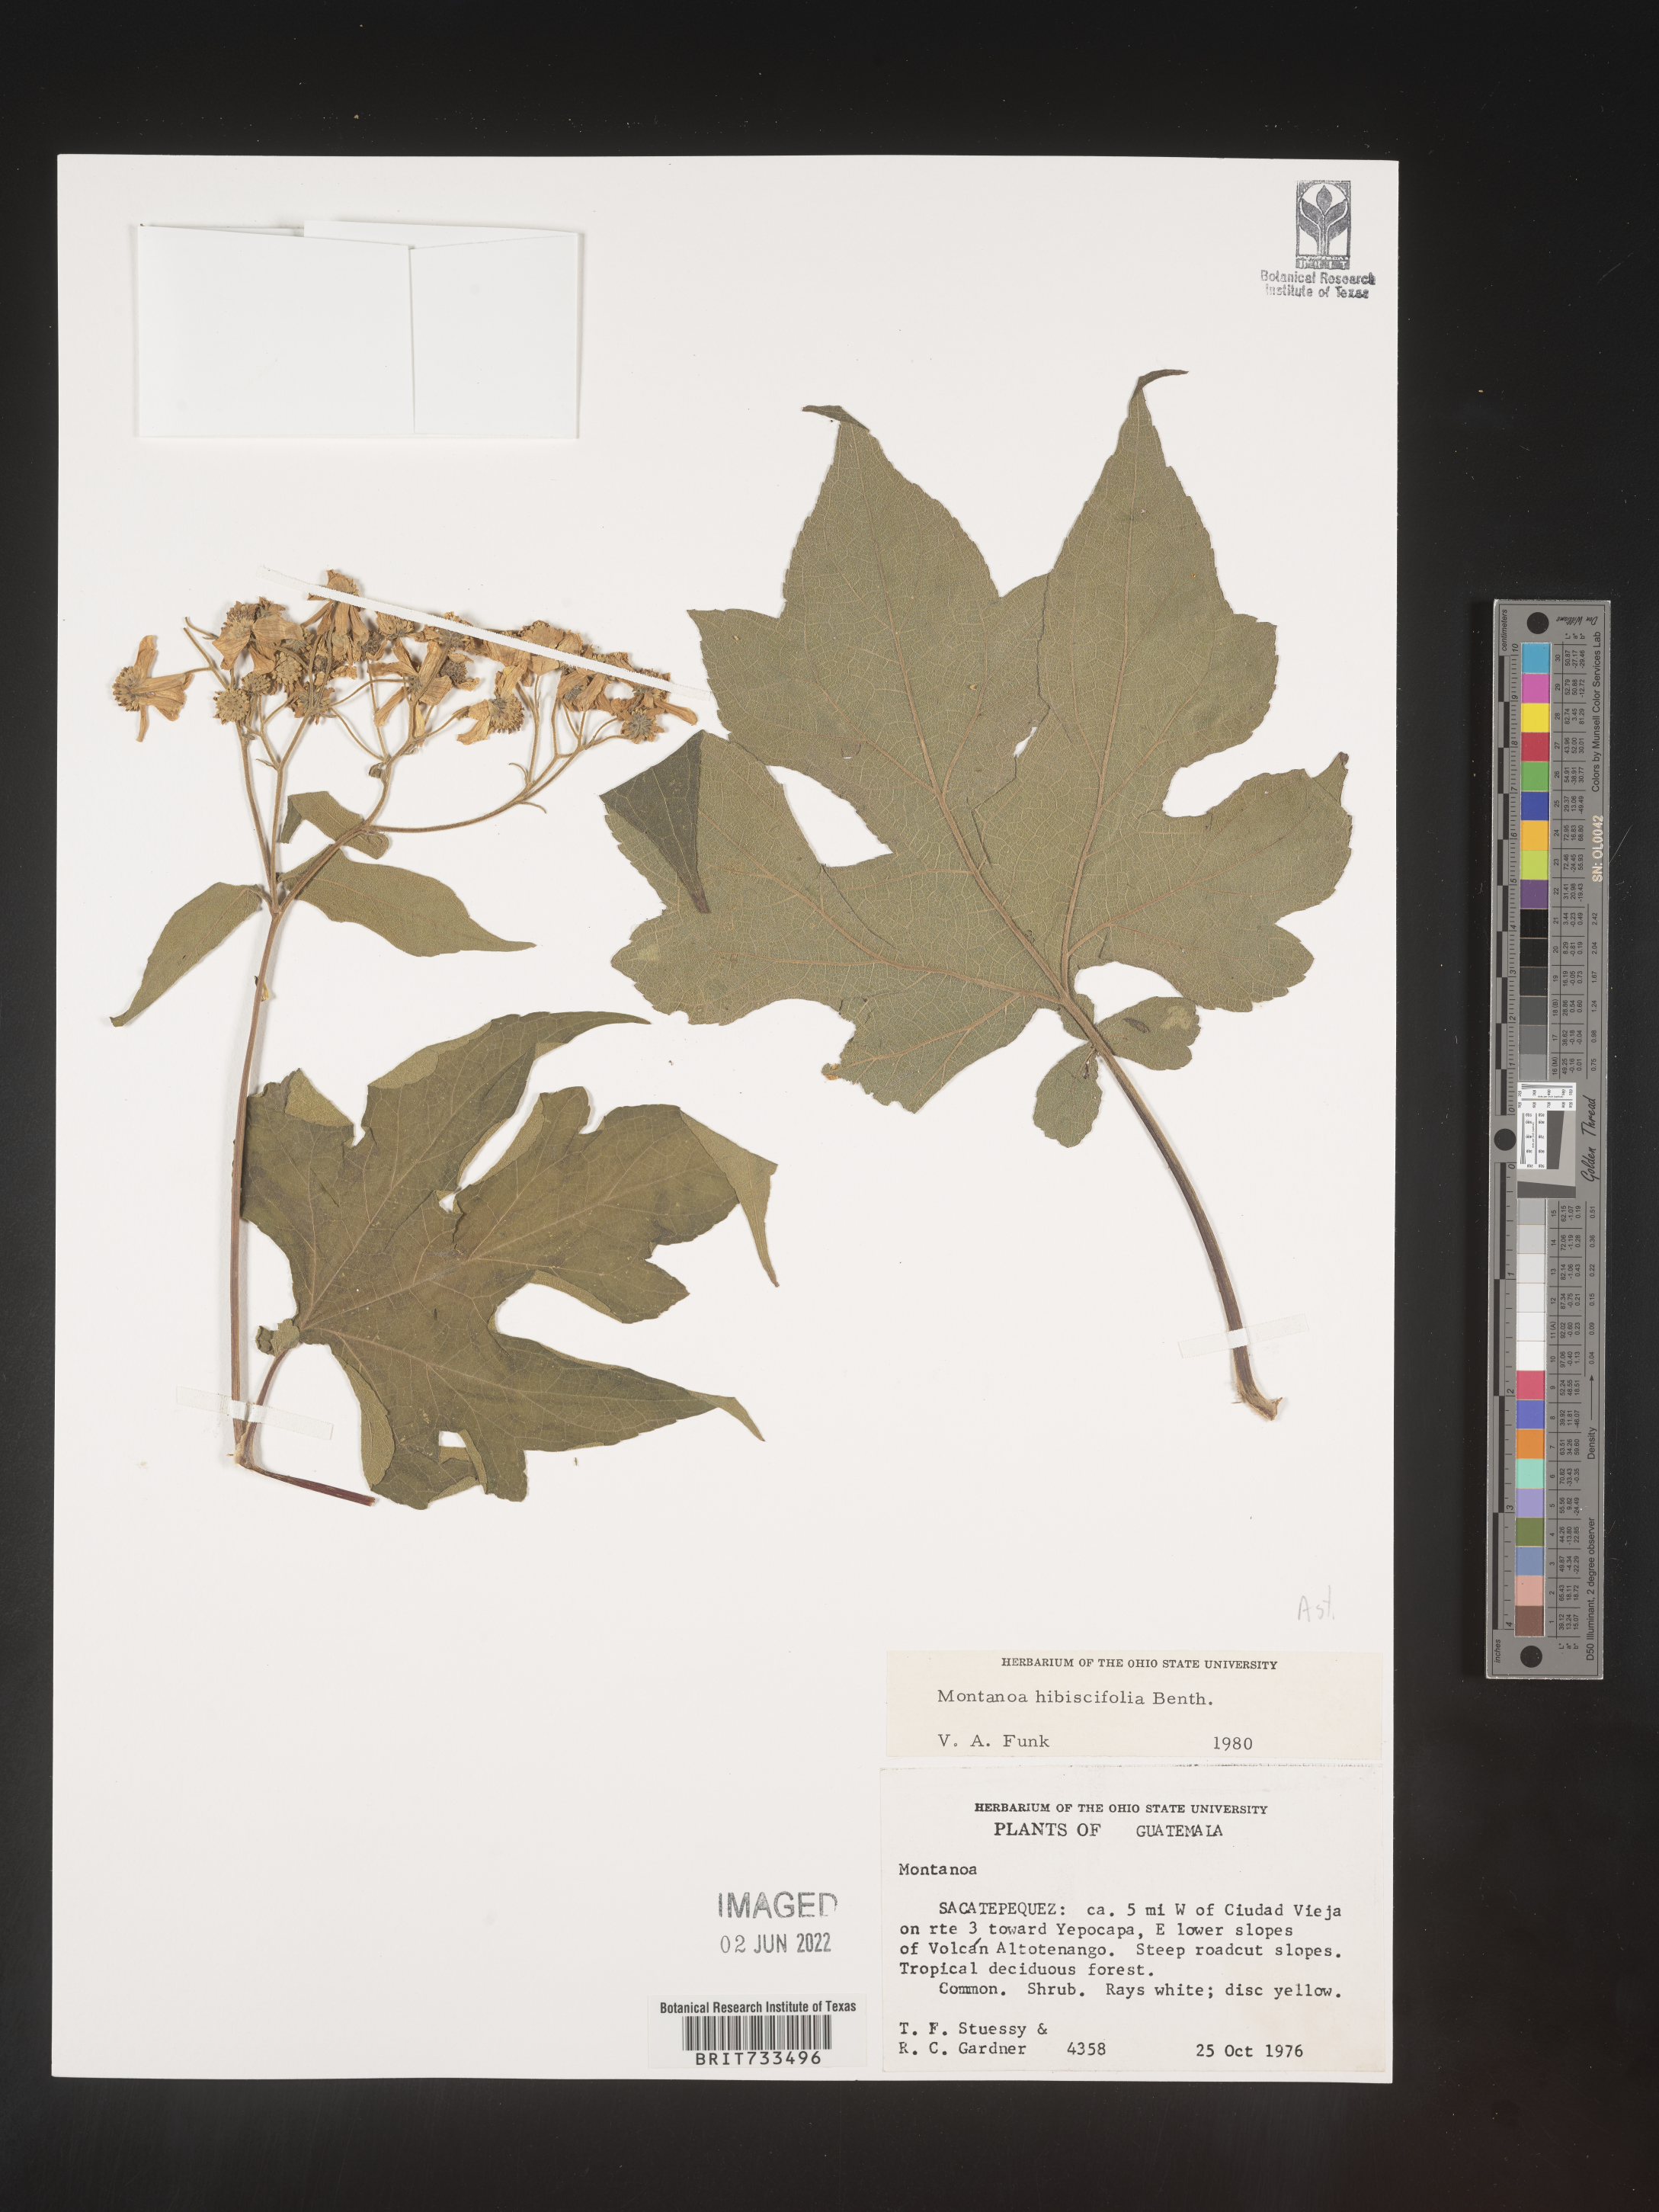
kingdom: Plantae
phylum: Tracheophyta
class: Magnoliopsida
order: Asterales
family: Asteraceae
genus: Montanoa
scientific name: Montanoa
